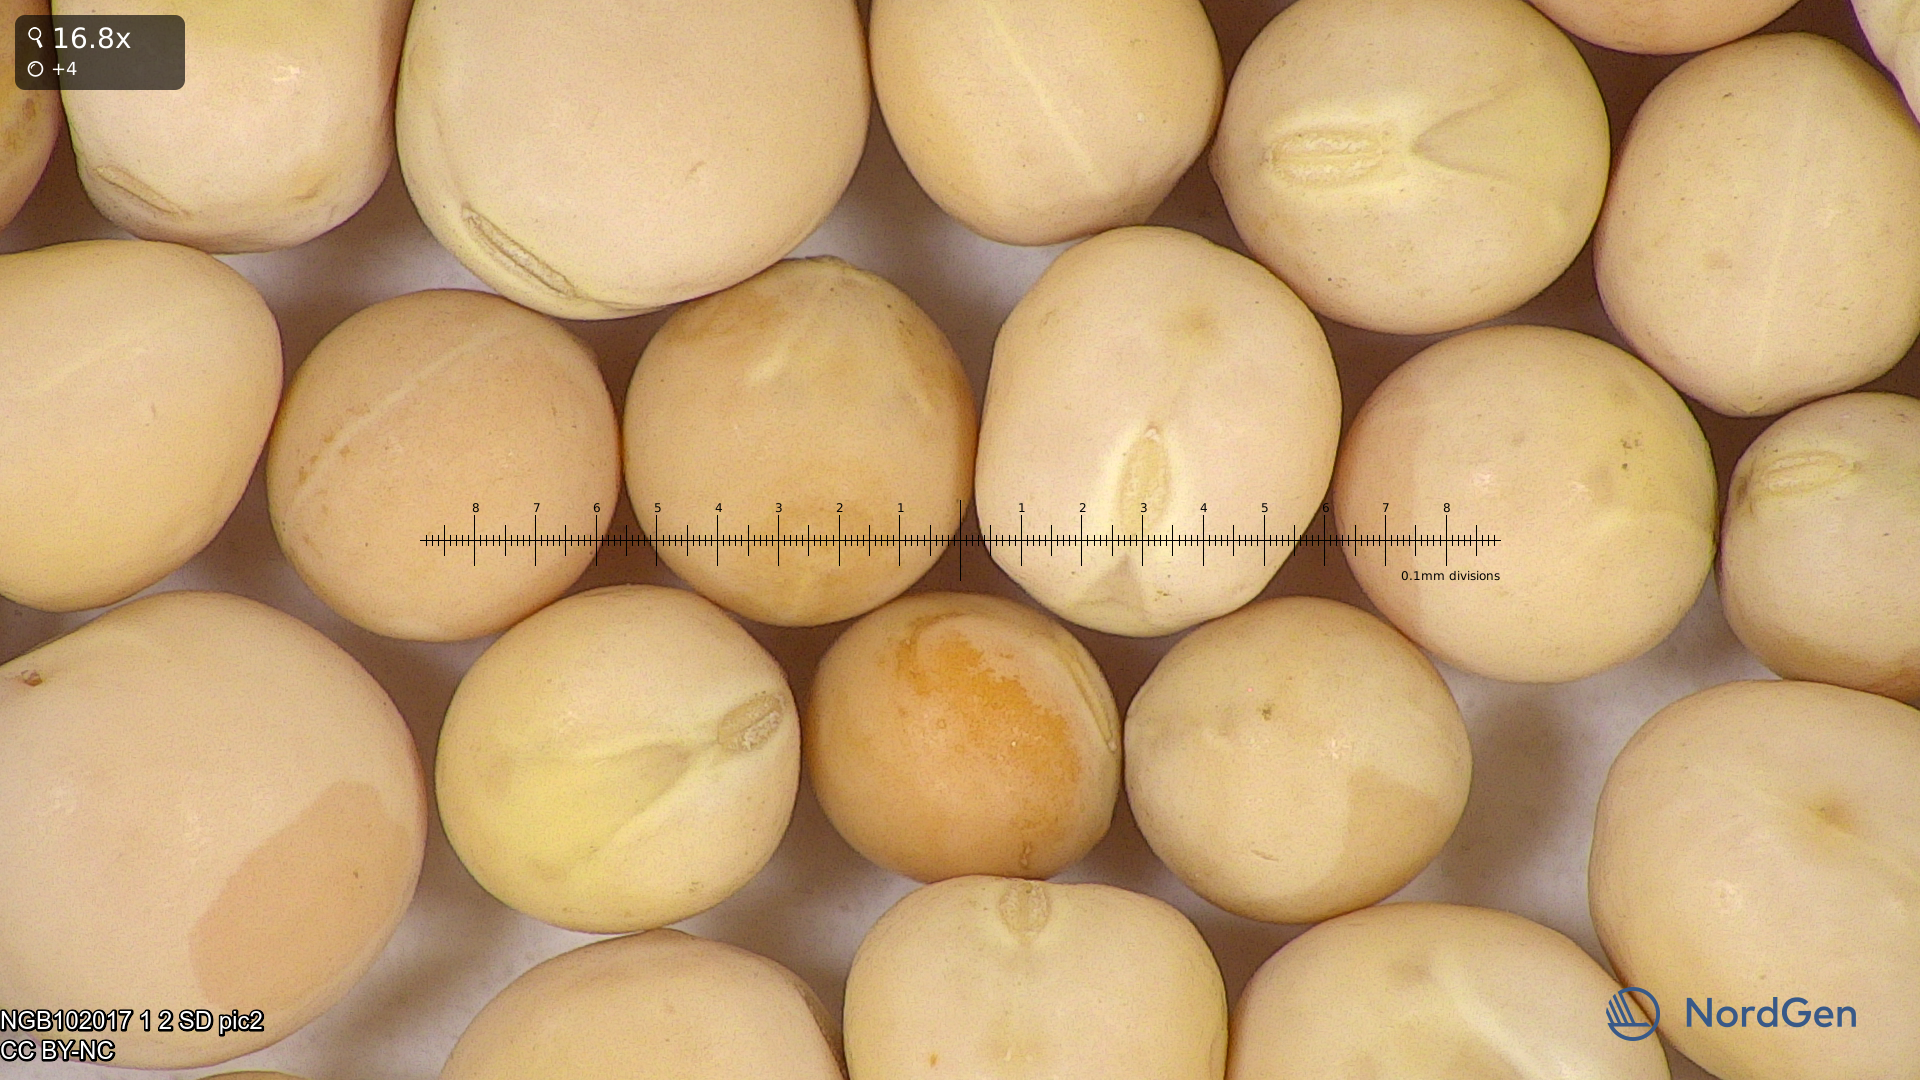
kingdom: Plantae
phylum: Tracheophyta
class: Magnoliopsida
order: Fabales
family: Fabaceae
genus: Lathyrus
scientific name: Lathyrus oleraceus
